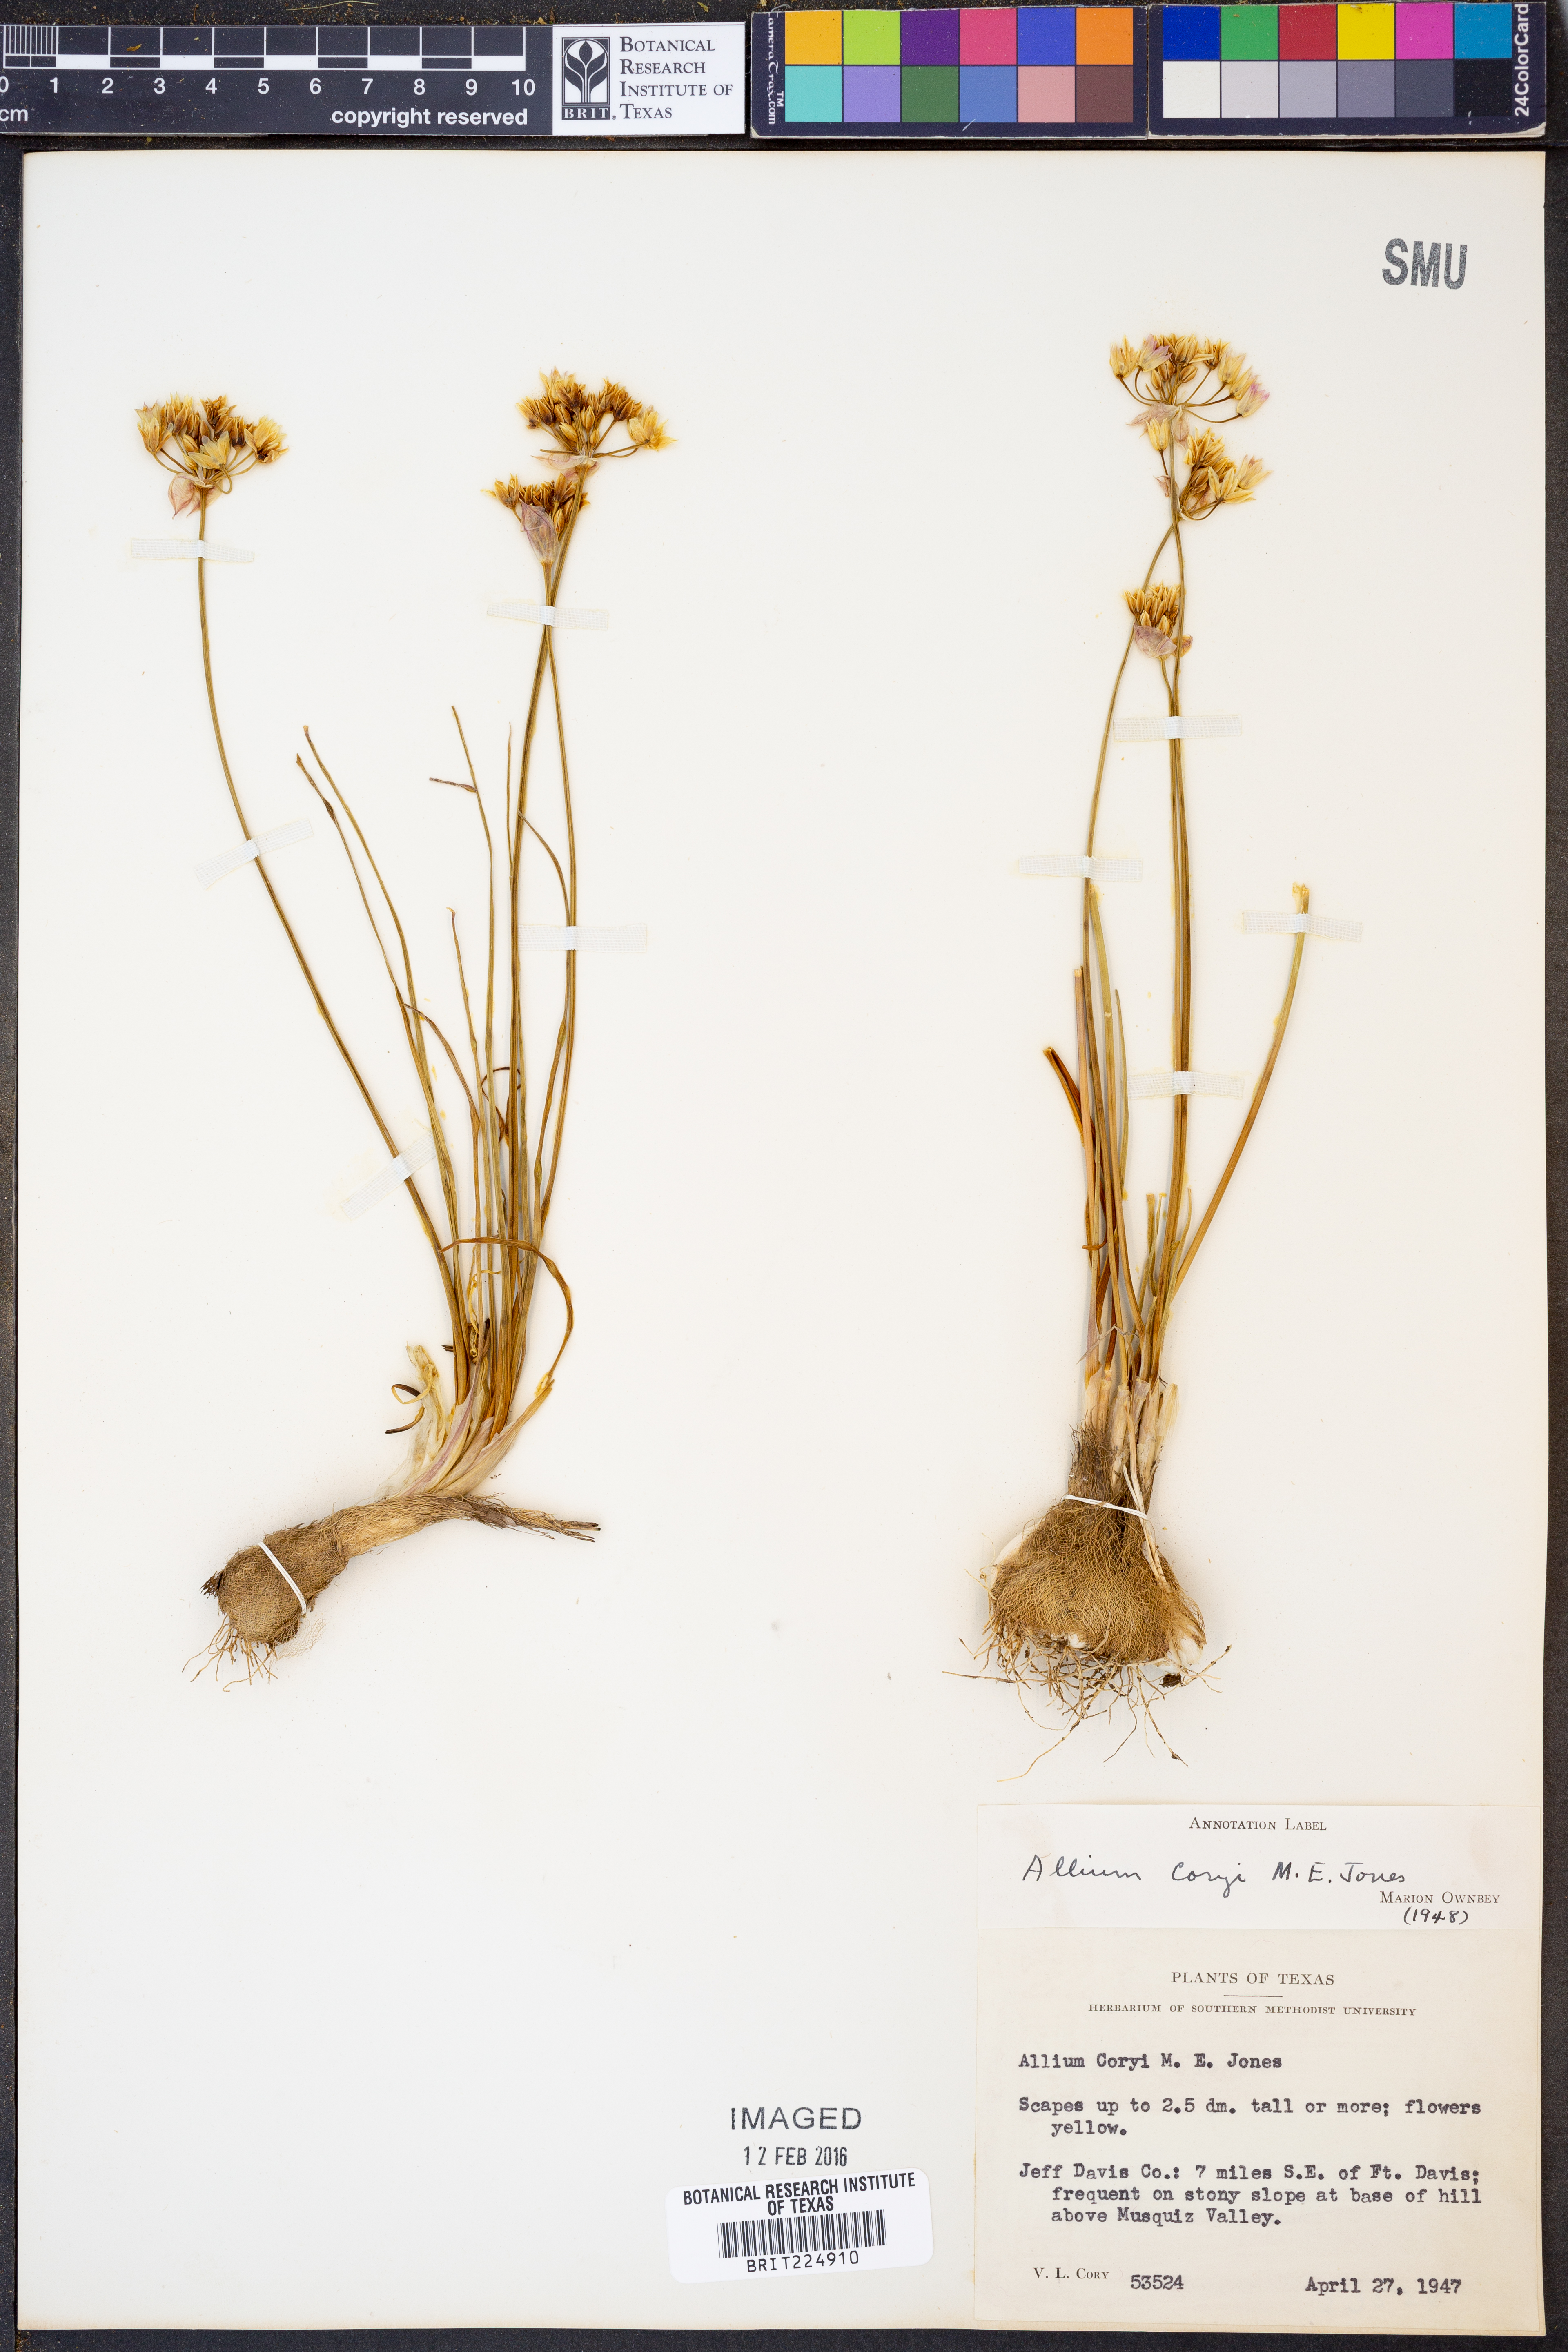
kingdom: Plantae
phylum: Tracheophyta
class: Liliopsida
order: Asparagales
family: Amaryllidaceae
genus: Allium
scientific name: Allium coryi
